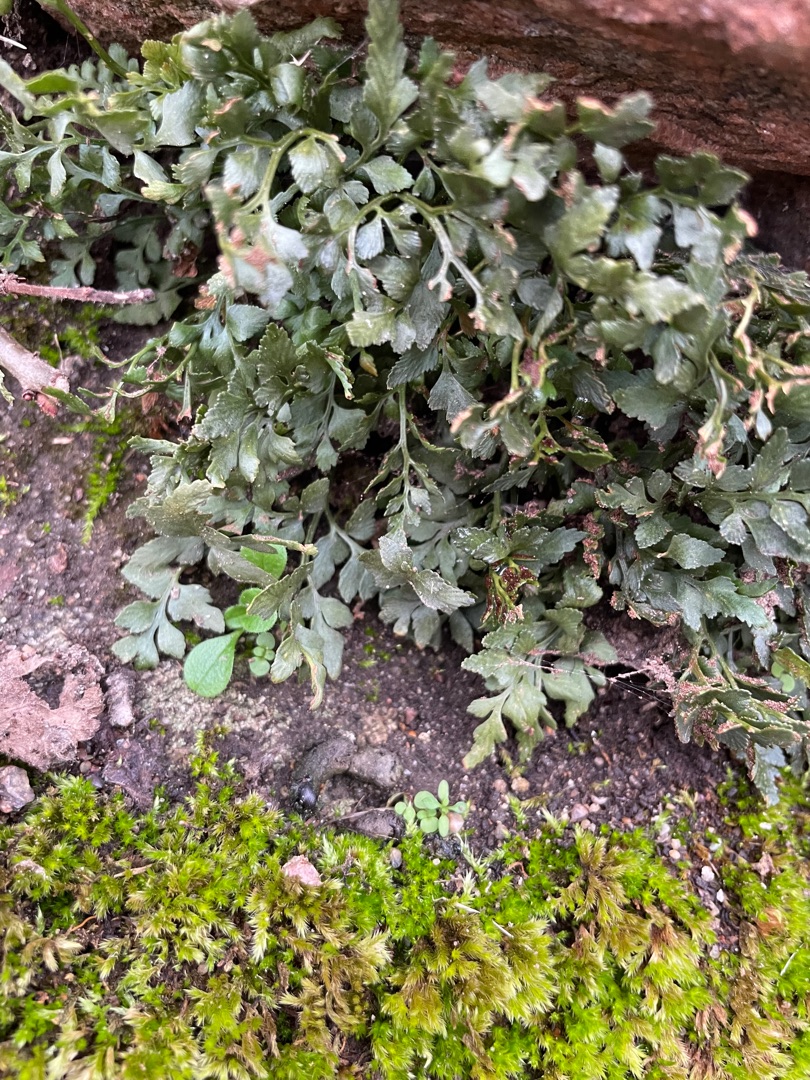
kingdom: Plantae
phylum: Tracheophyta
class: Polypodiopsida
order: Polypodiales
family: Aspleniaceae
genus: Asplenium
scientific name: Asplenium ruta-muraria
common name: Murrude
